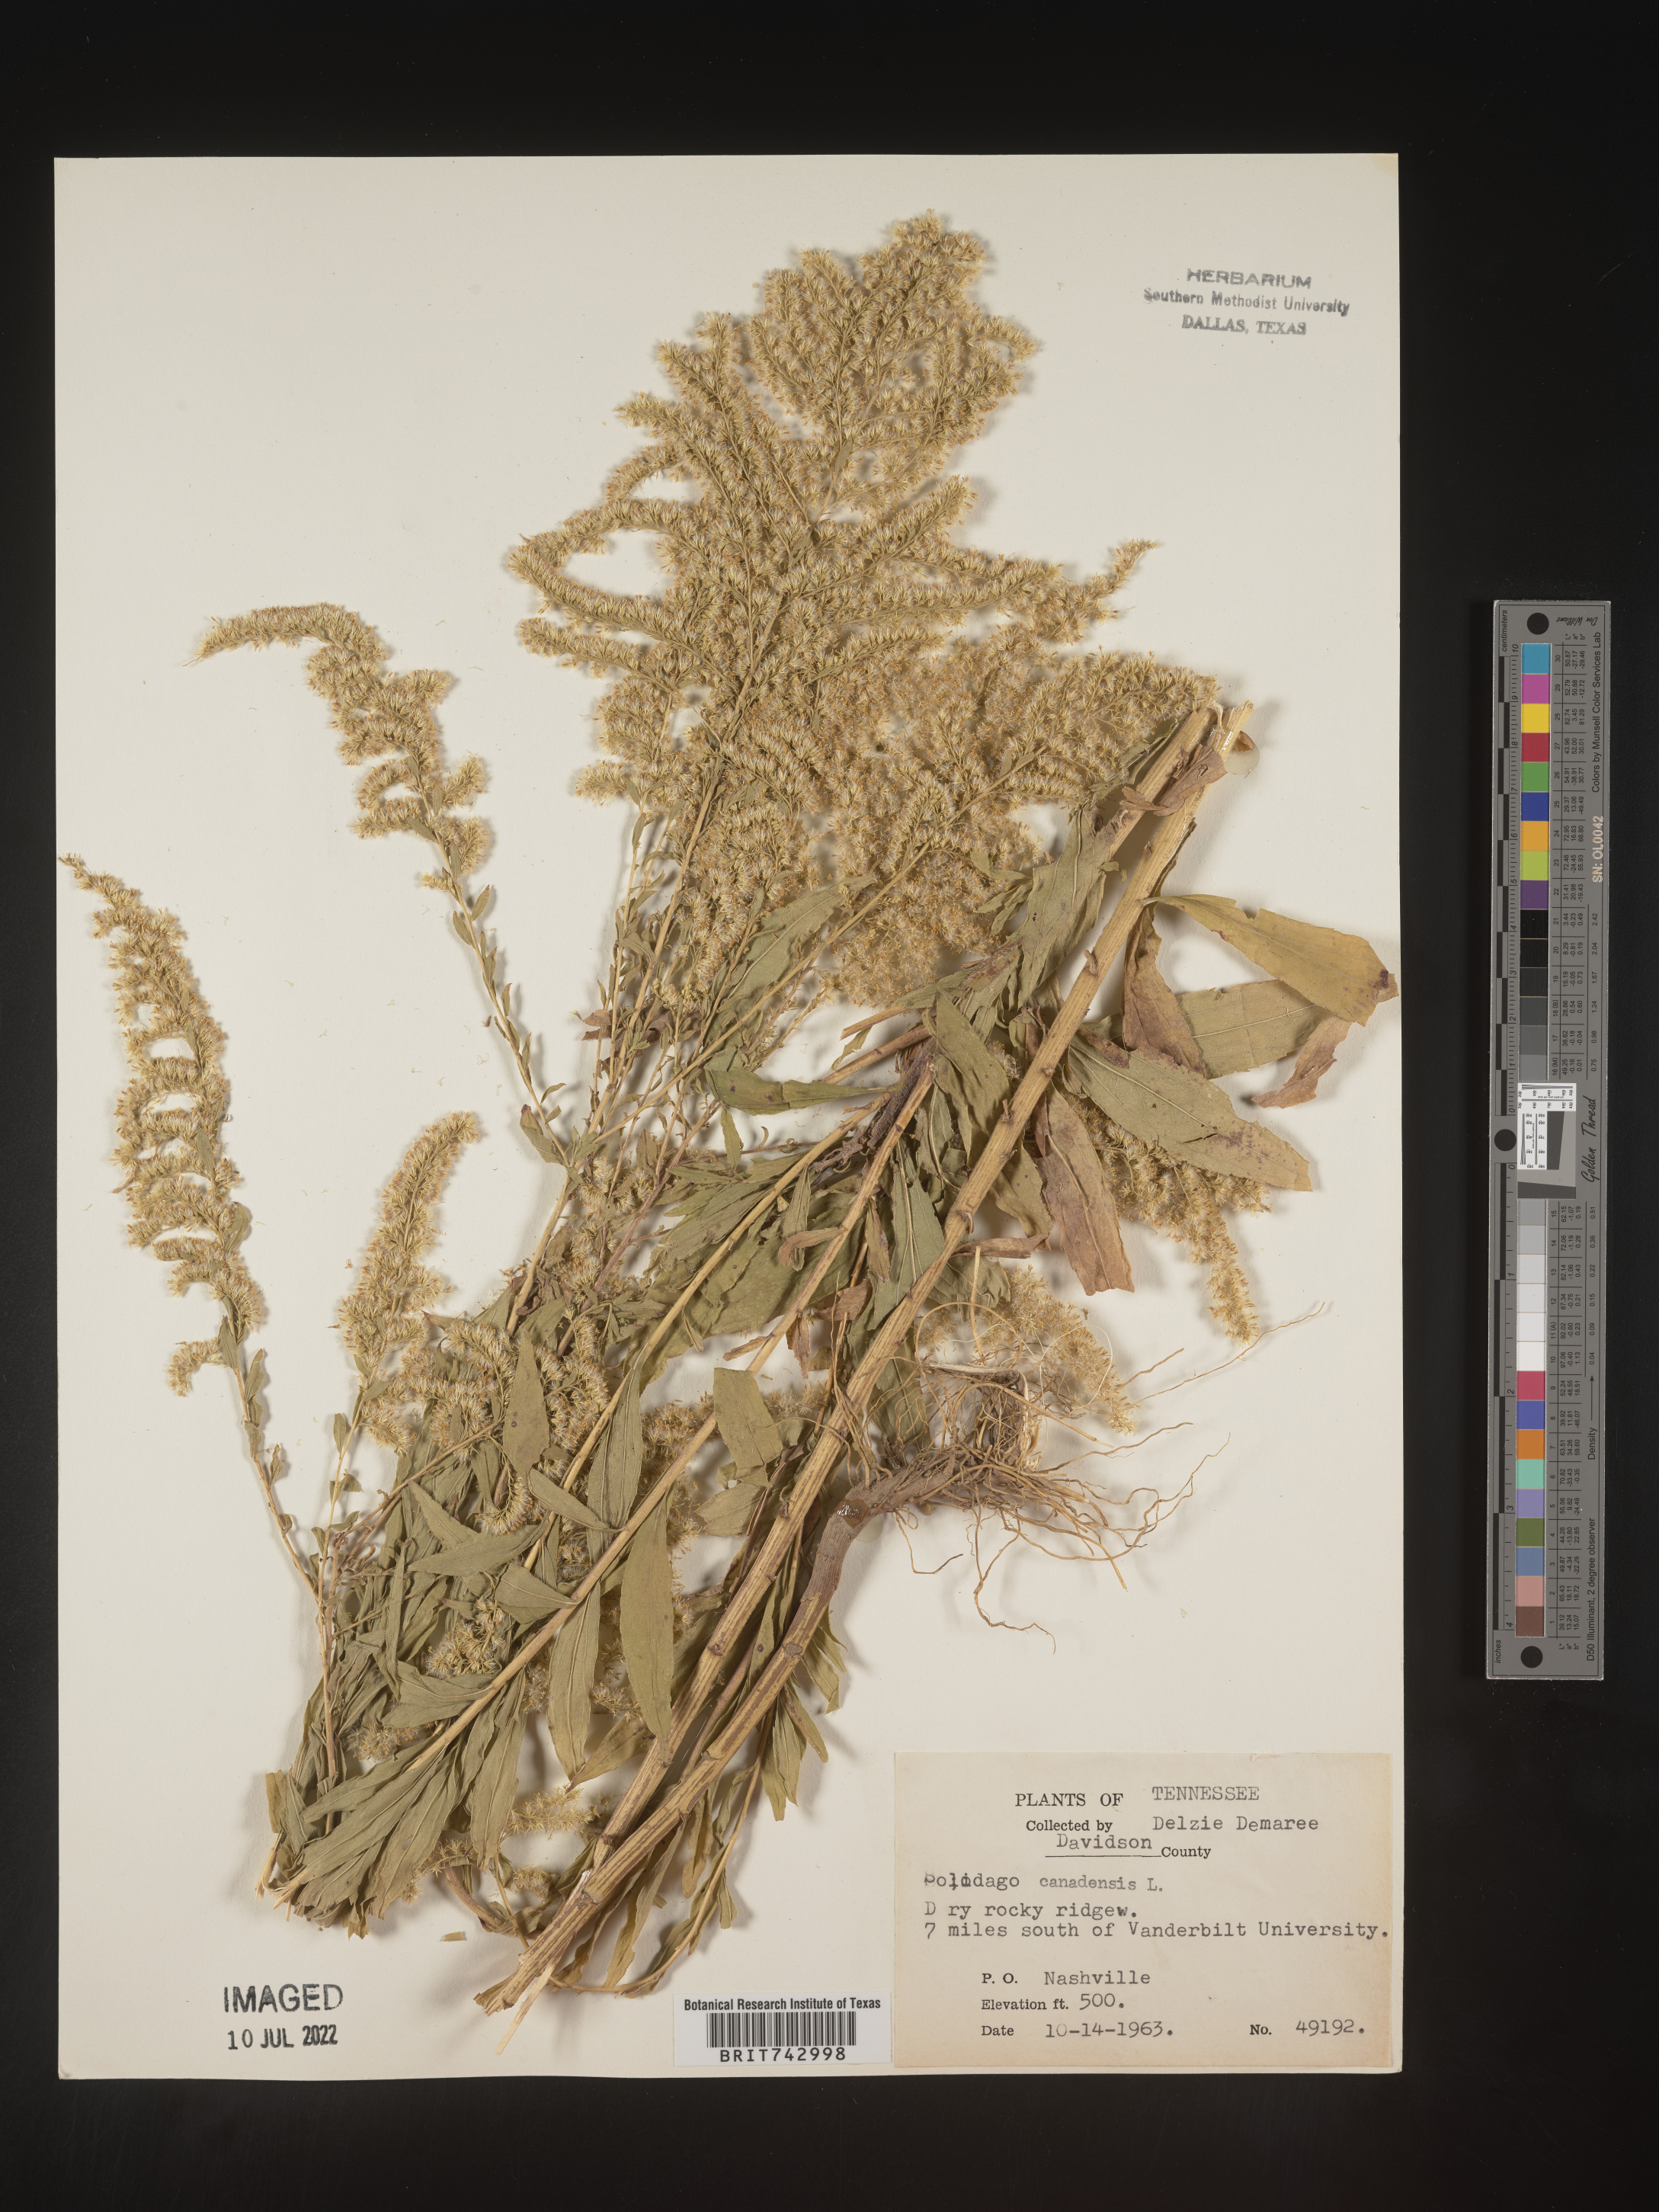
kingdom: Plantae
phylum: Tracheophyta
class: Magnoliopsida
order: Asterales
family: Asteraceae
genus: Solidago
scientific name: Solidago altissima
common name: Late goldenrod
